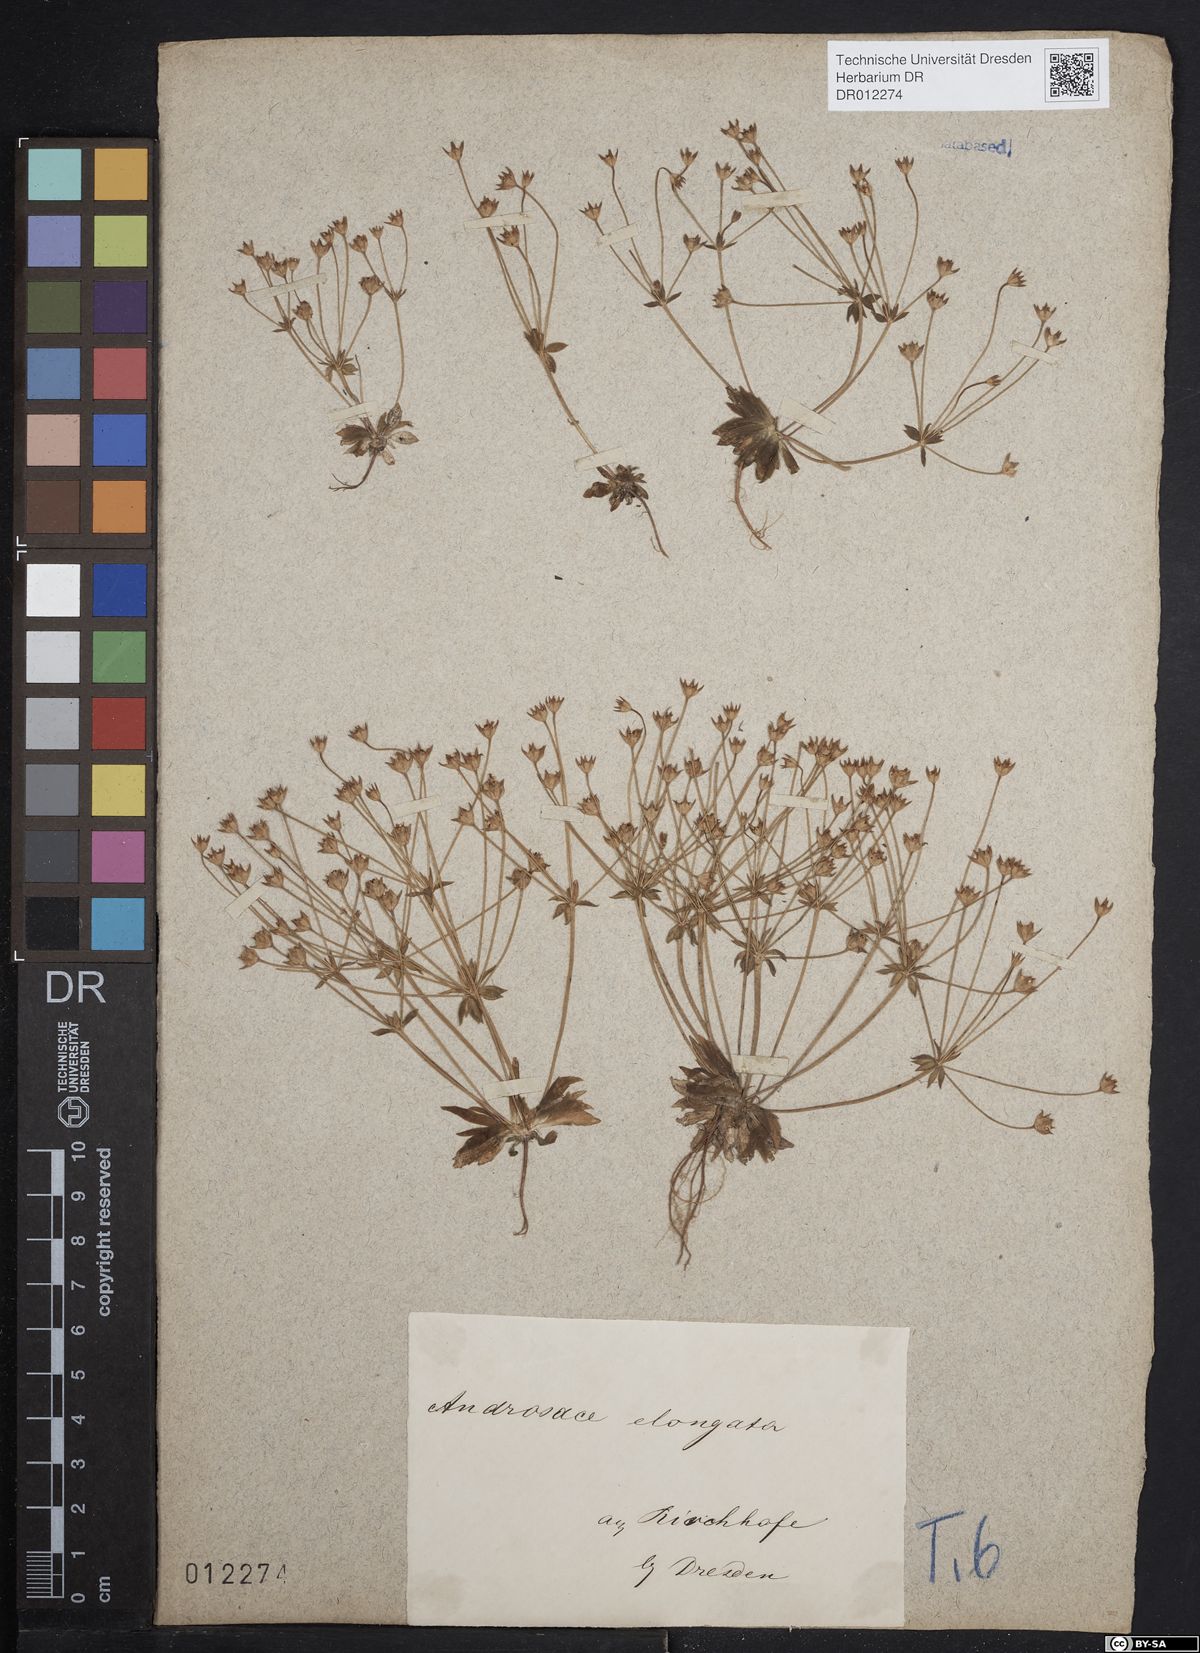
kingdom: Plantae
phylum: Tracheophyta
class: Magnoliopsida
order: Ericales
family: Primulaceae
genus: Androsace
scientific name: Androsace elongata
